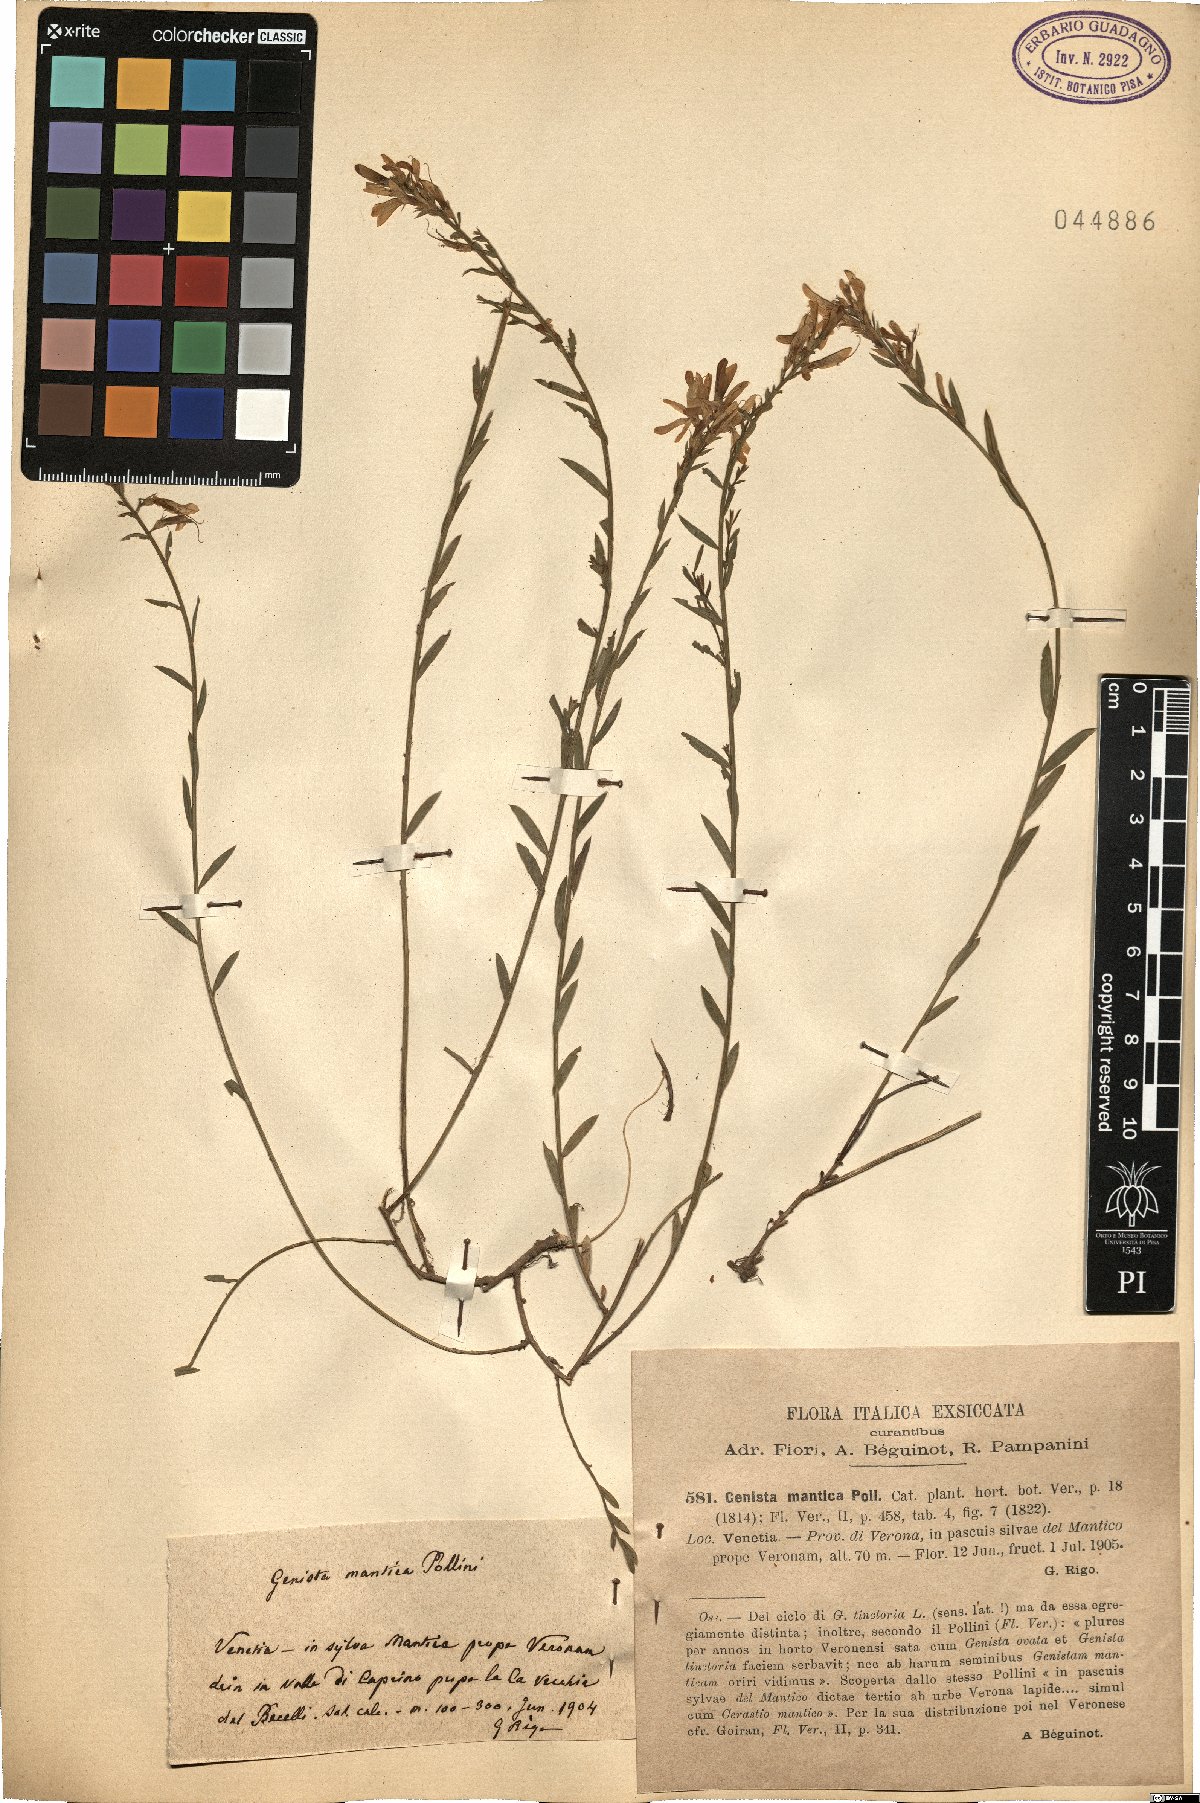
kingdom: Plantae
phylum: Tracheophyta
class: Magnoliopsida
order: Fabales
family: Fabaceae
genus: Genista
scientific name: Genista tinctoria
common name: Dyer's greenweed
